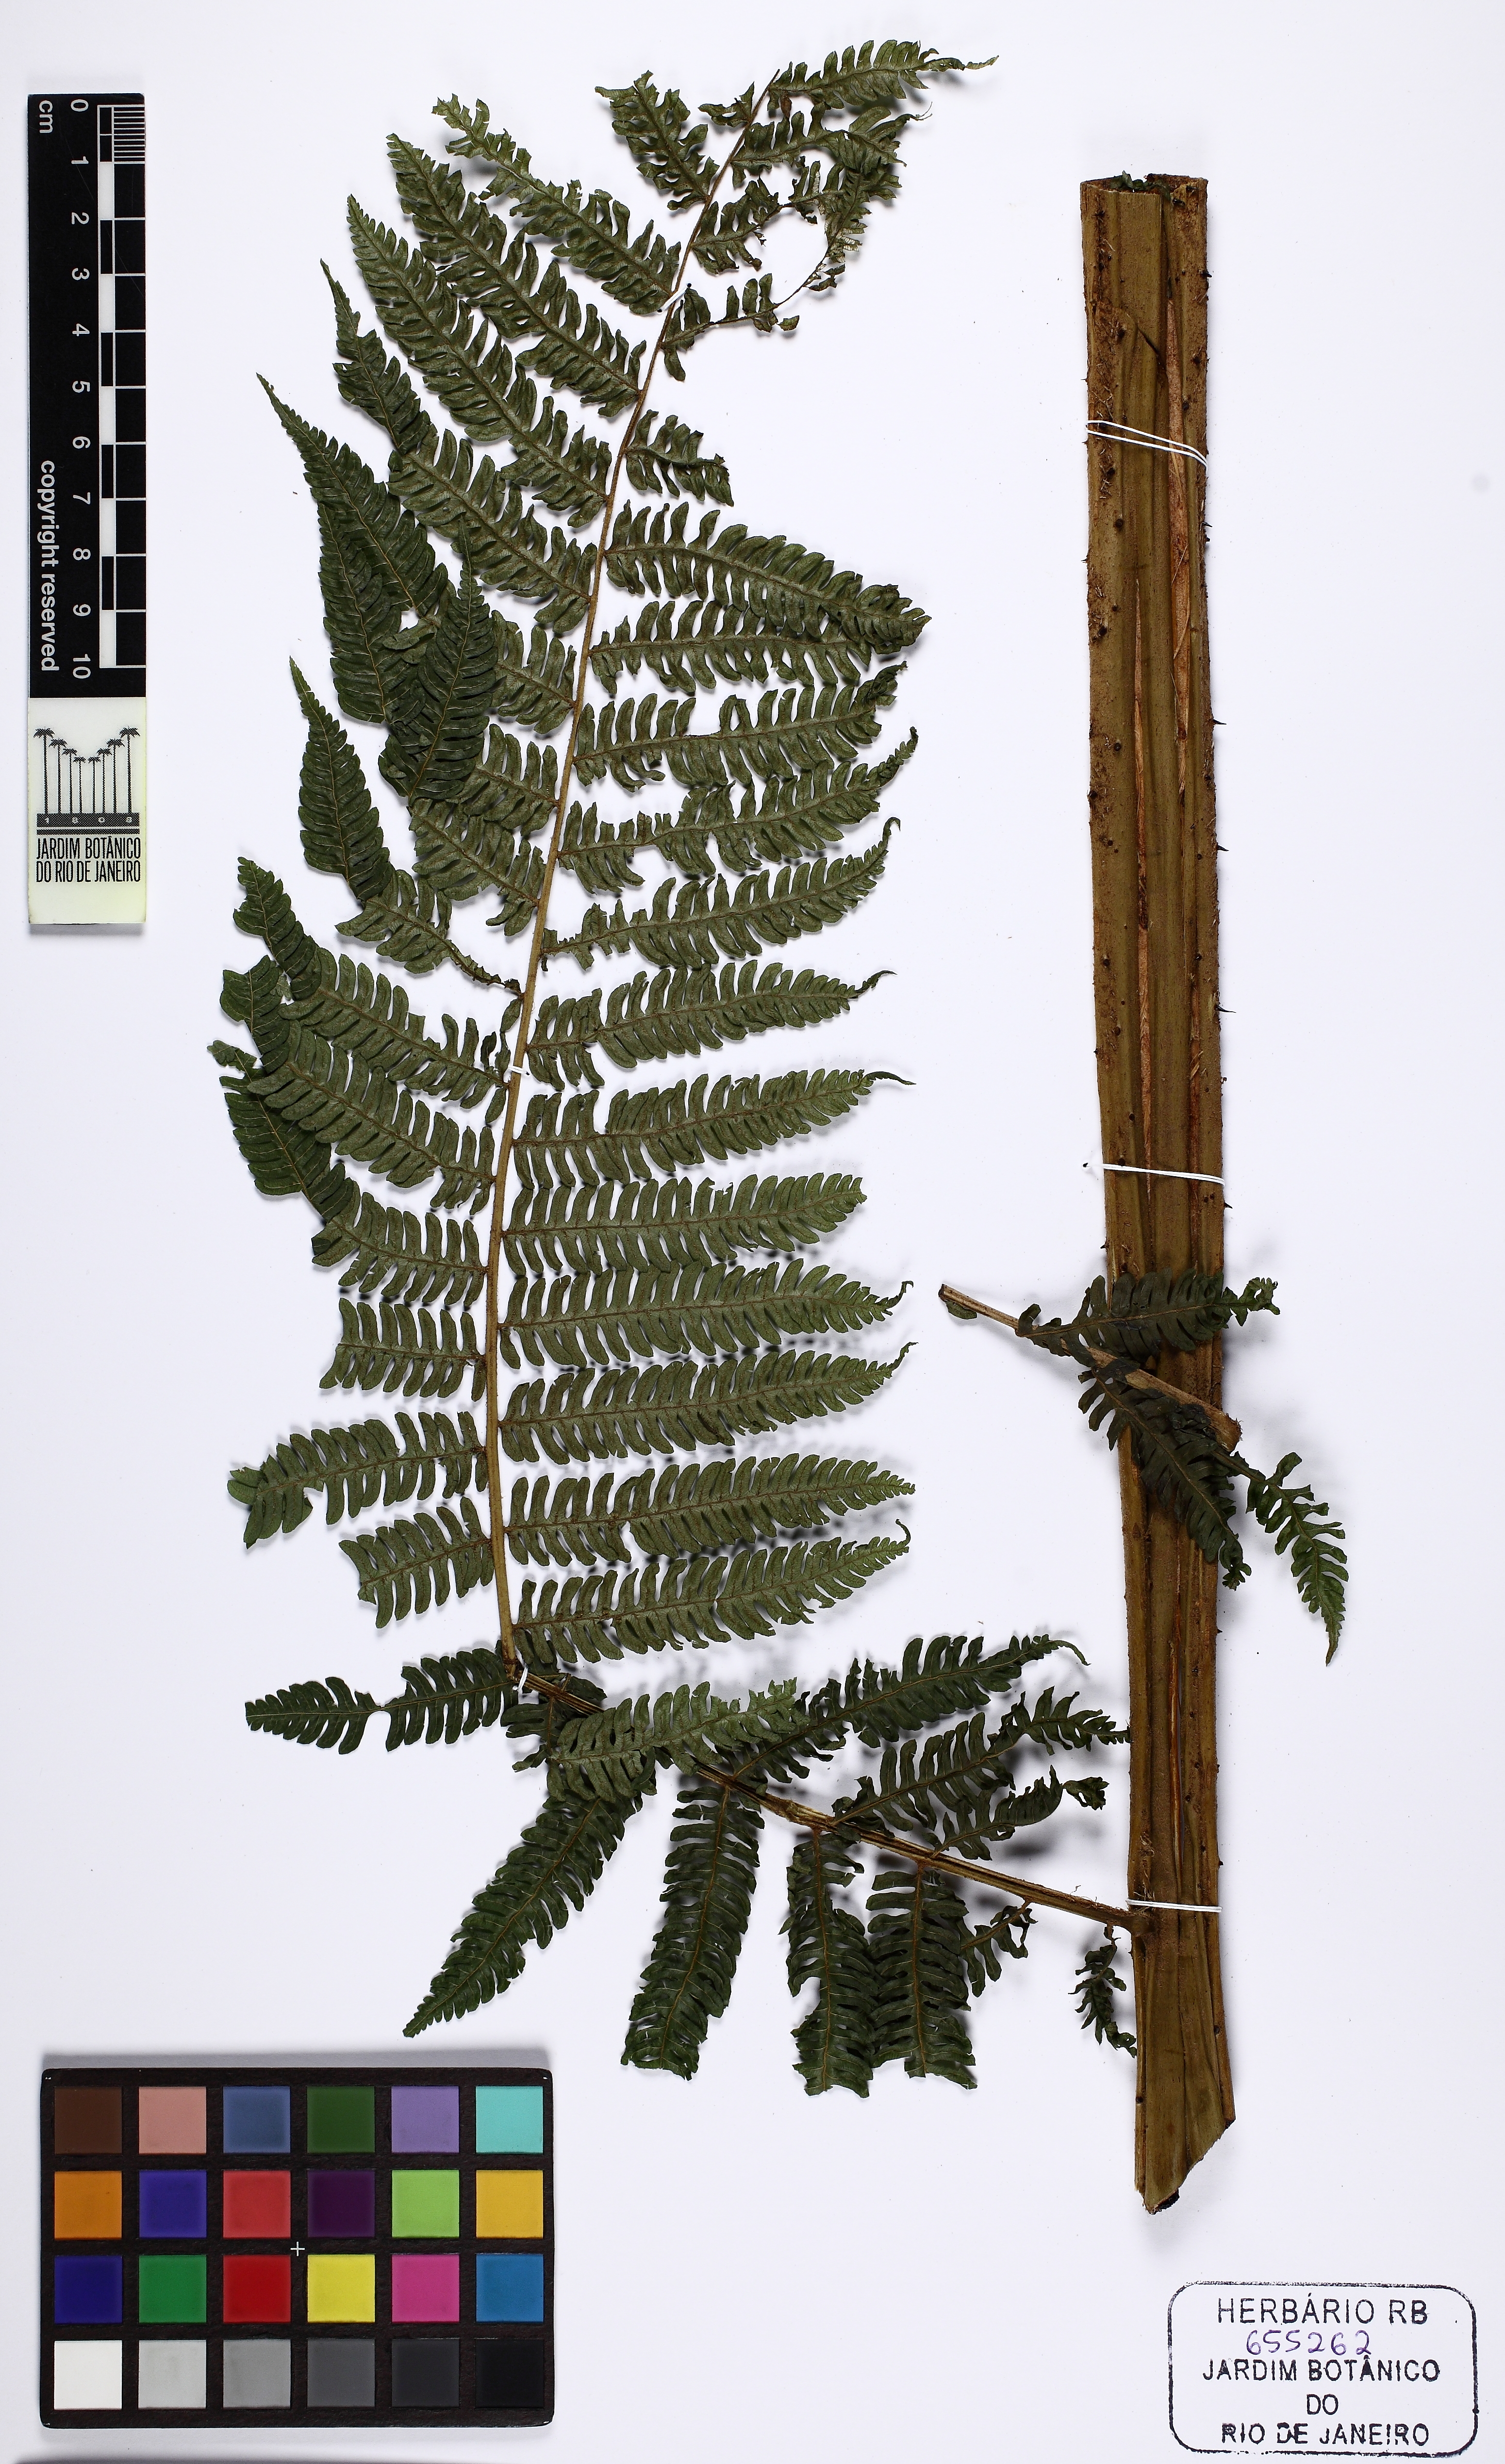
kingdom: Plantae
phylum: Tracheophyta
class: Polypodiopsida
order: Cyatheales
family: Cyatheaceae
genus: Alsophila
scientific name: Alsophila sternbergii
